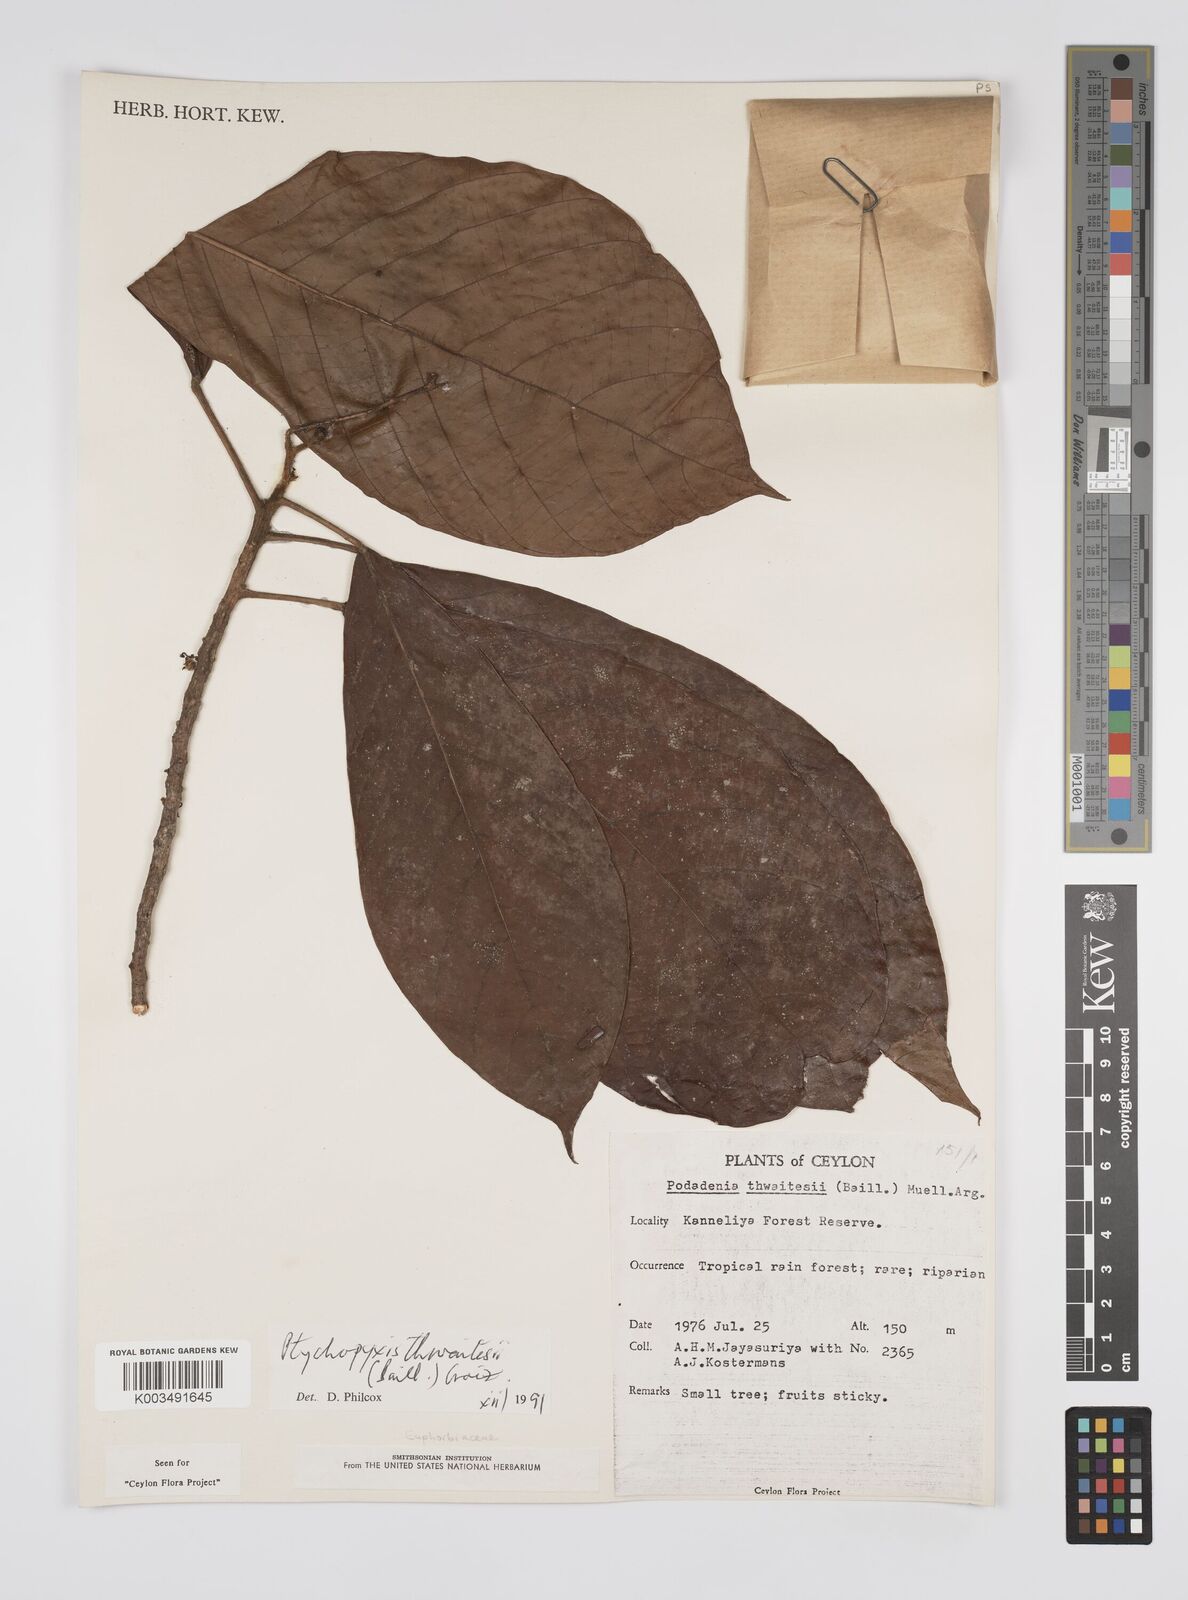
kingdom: Plantae
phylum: Tracheophyta
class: Magnoliopsida
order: Malpighiales
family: Euphorbiaceae
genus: Podadenia
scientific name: Podadenia sapida
